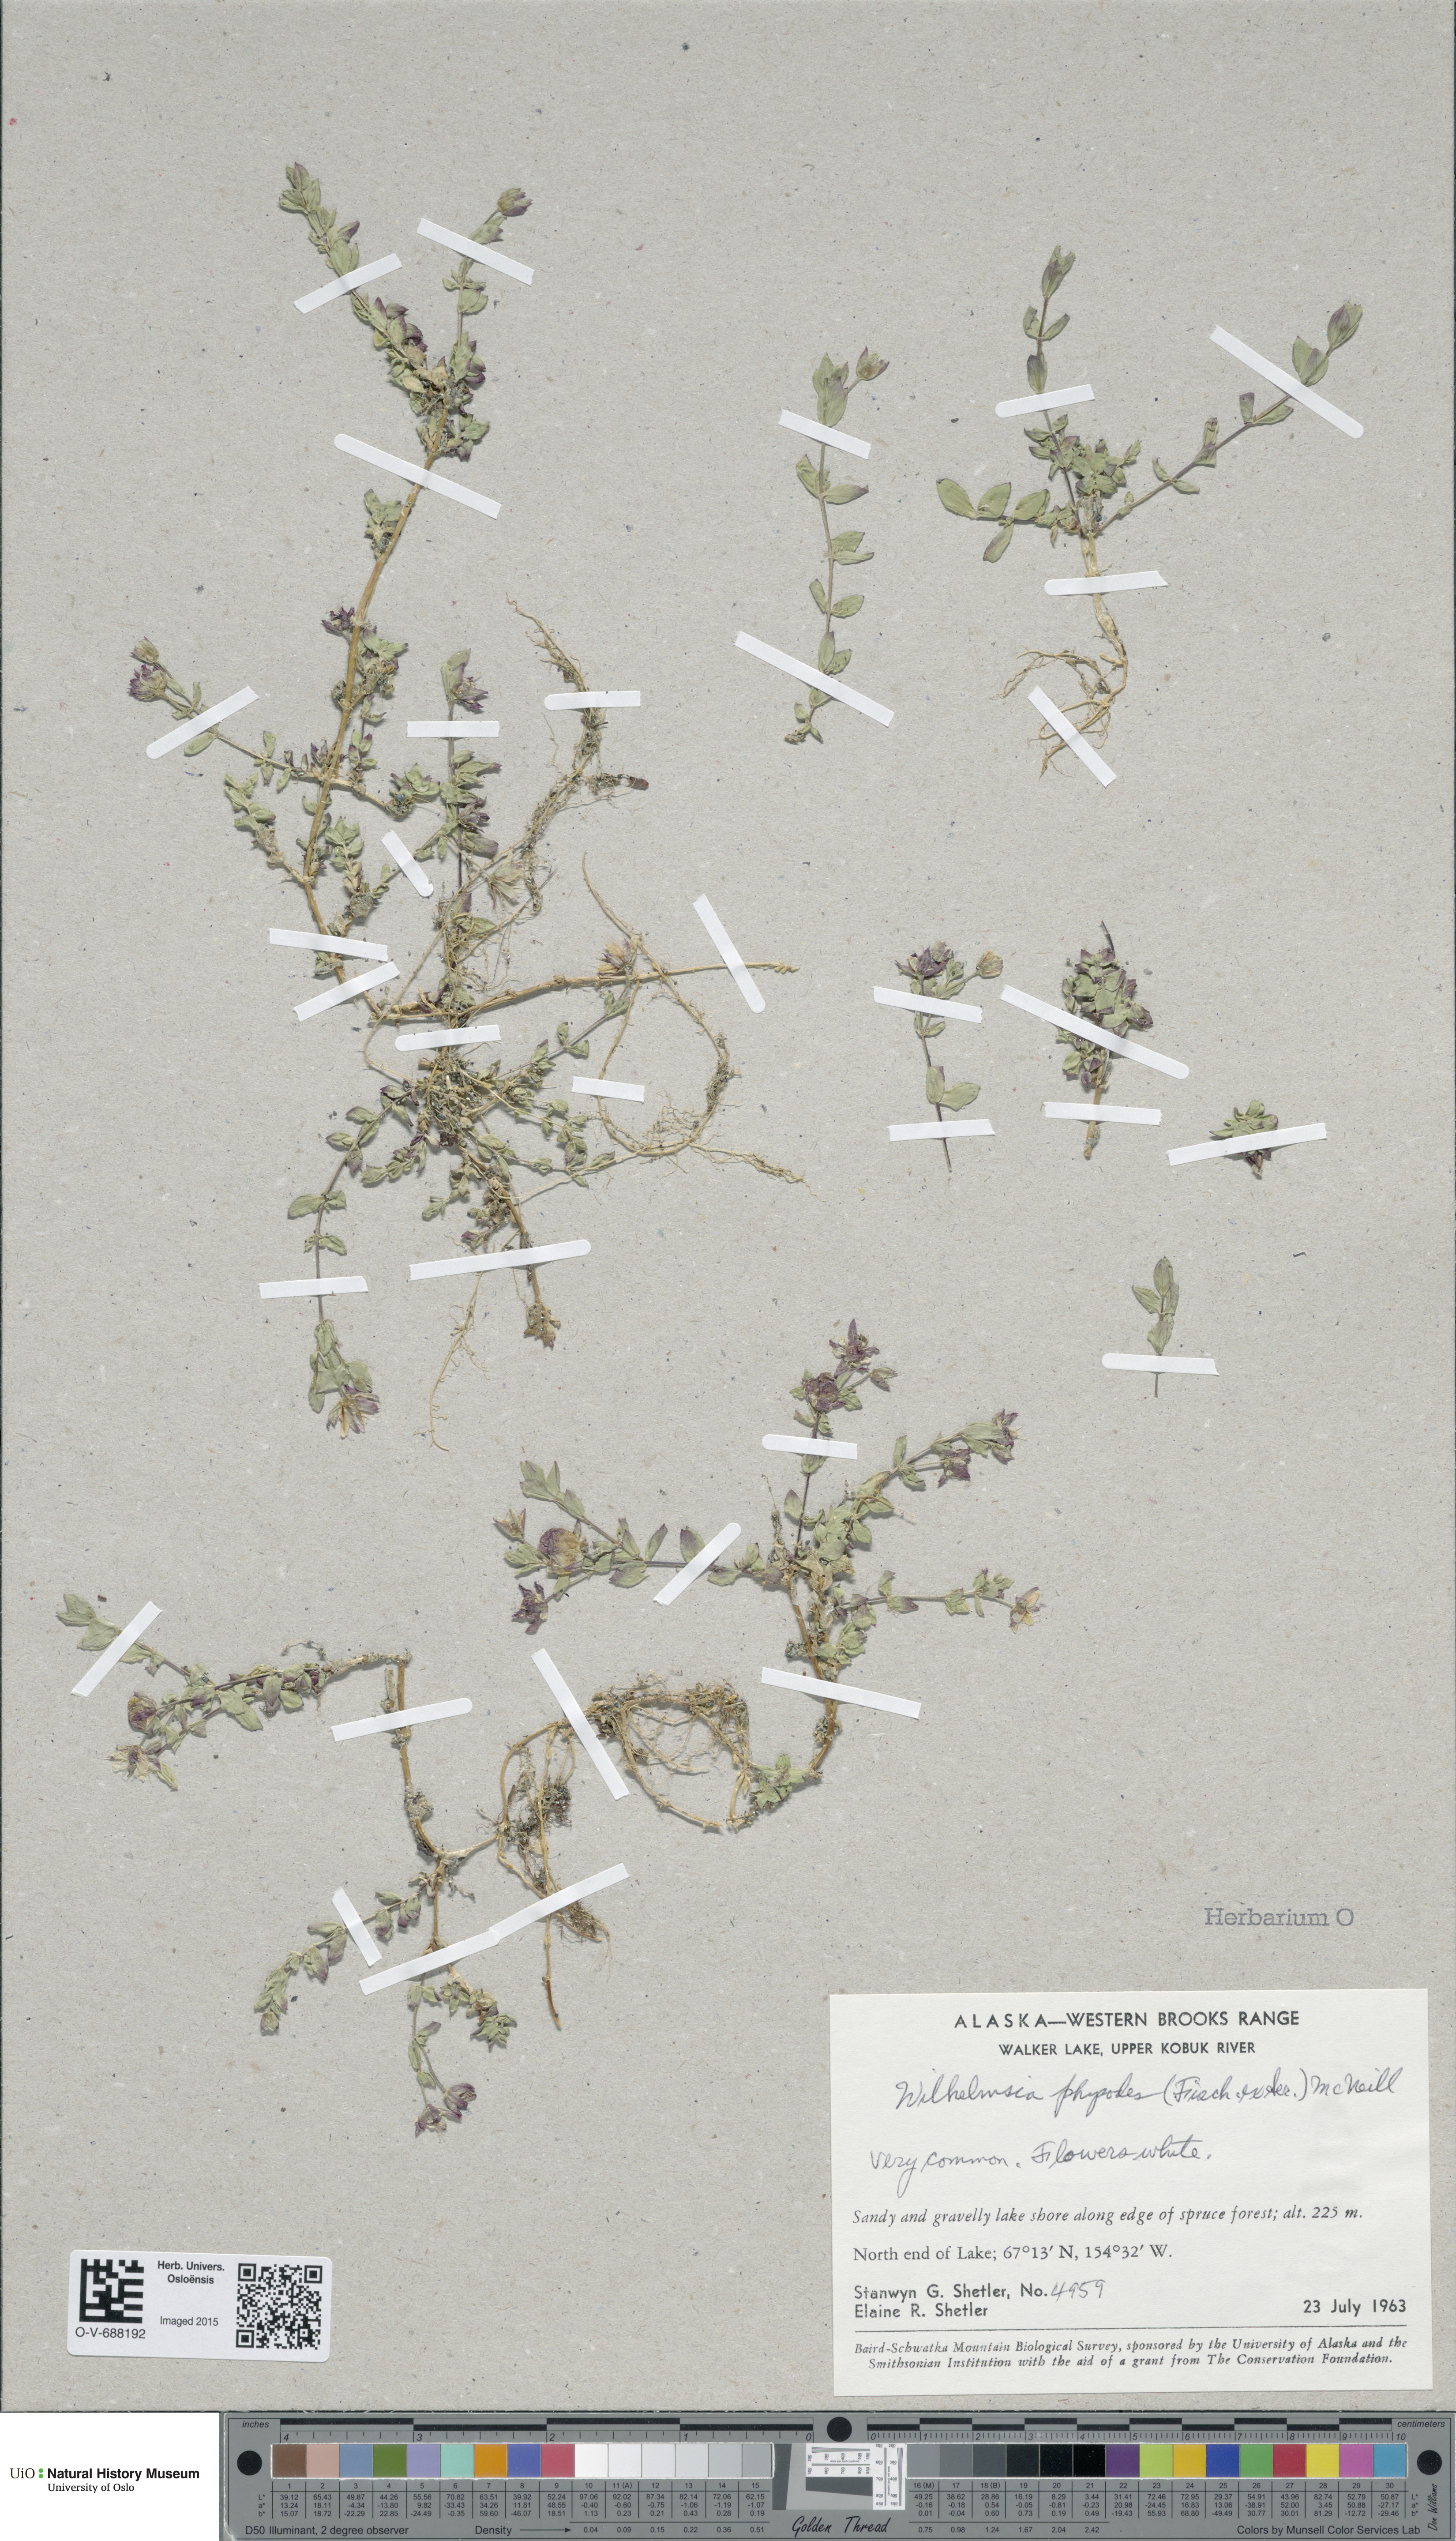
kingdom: Plantae
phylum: Tracheophyta
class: Magnoliopsida
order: Caryophyllales
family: Caryophyllaceae
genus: Wilhelmsia
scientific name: Wilhelmsia physodes
